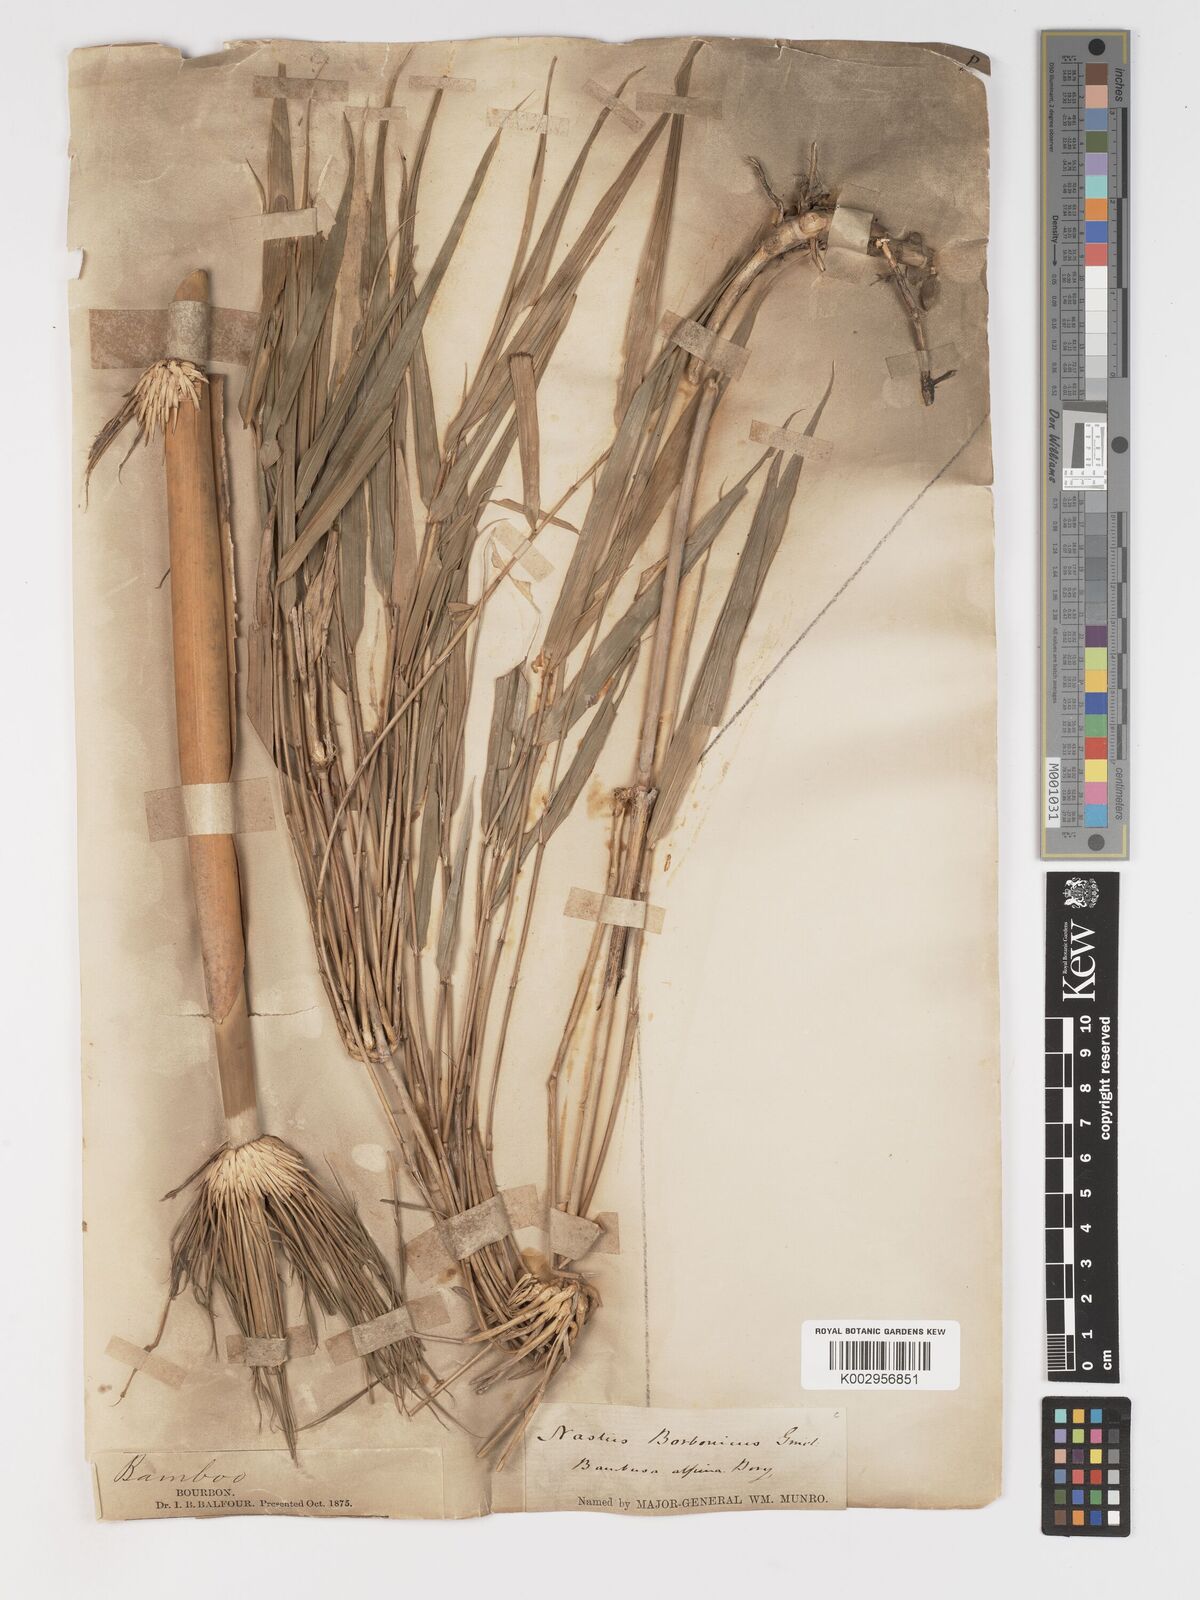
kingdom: Plantae
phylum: Tracheophyta
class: Liliopsida
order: Poales
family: Poaceae
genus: Nastus
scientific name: Nastus borbonicus
